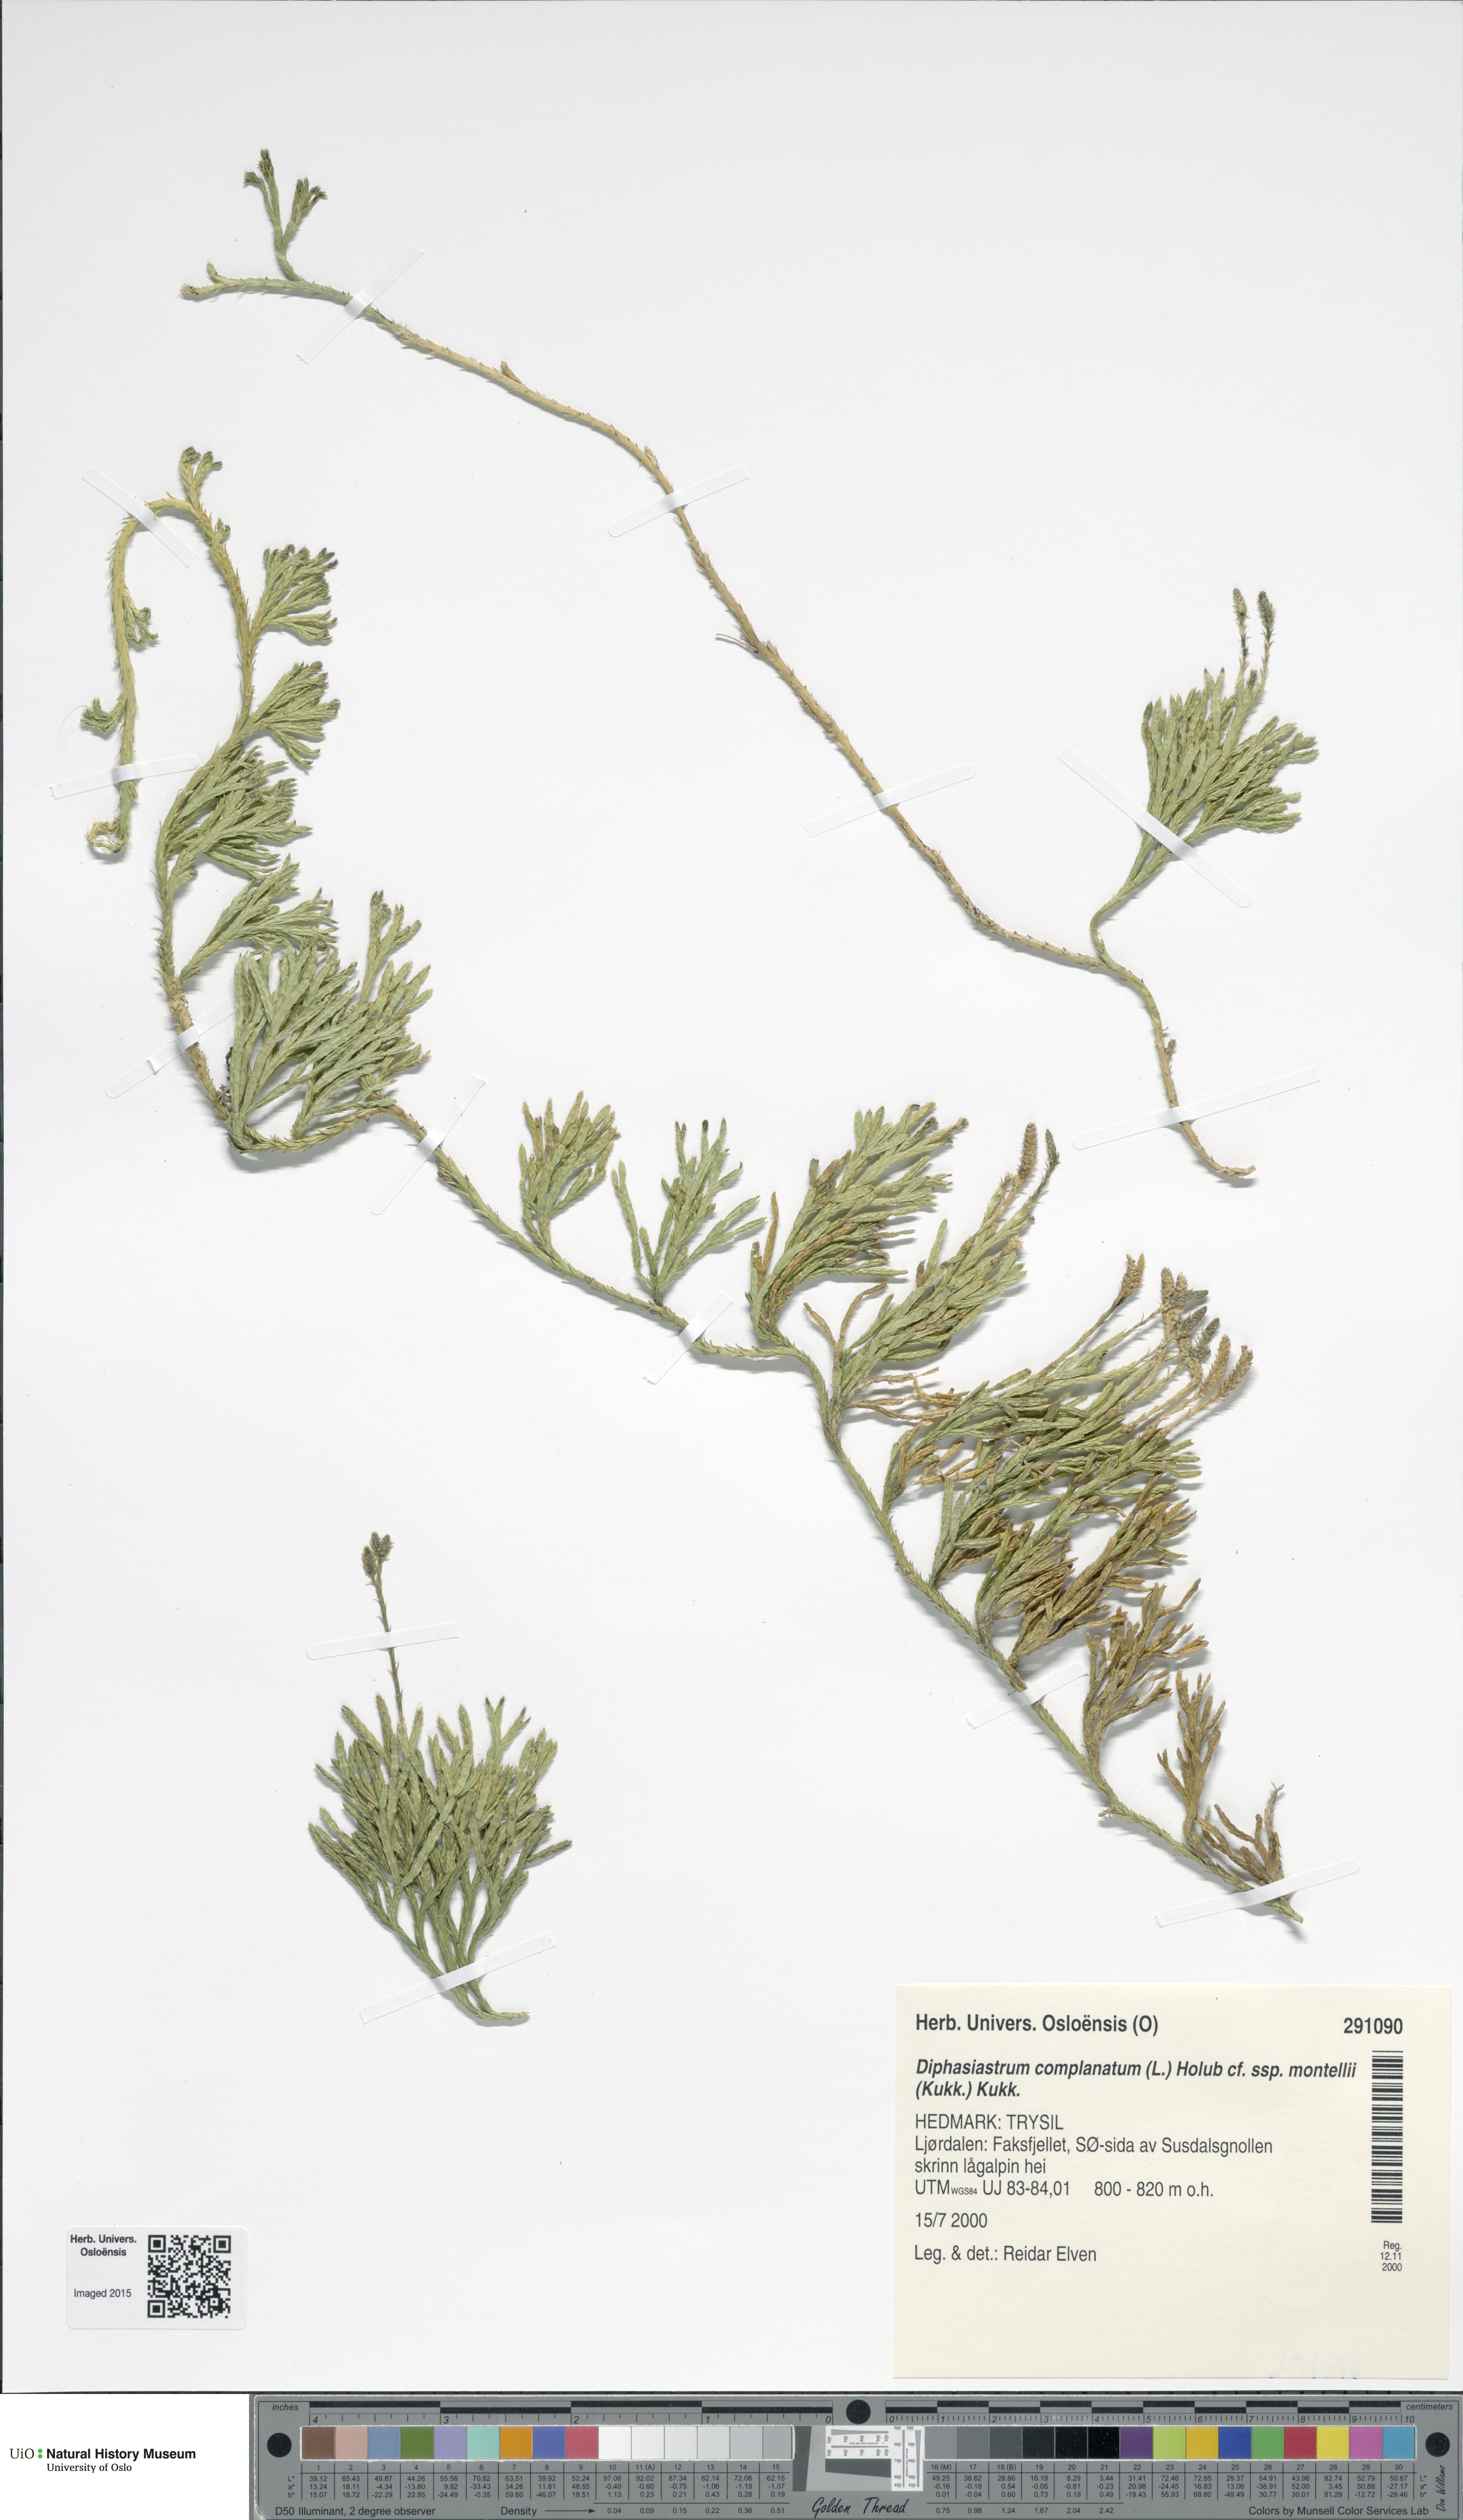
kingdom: Plantae
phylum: Tracheophyta
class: Lycopodiopsida
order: Lycopodiales
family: Lycopodiaceae
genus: Diphasiastrum
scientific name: Diphasiastrum complanatum
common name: Northern running-pine
